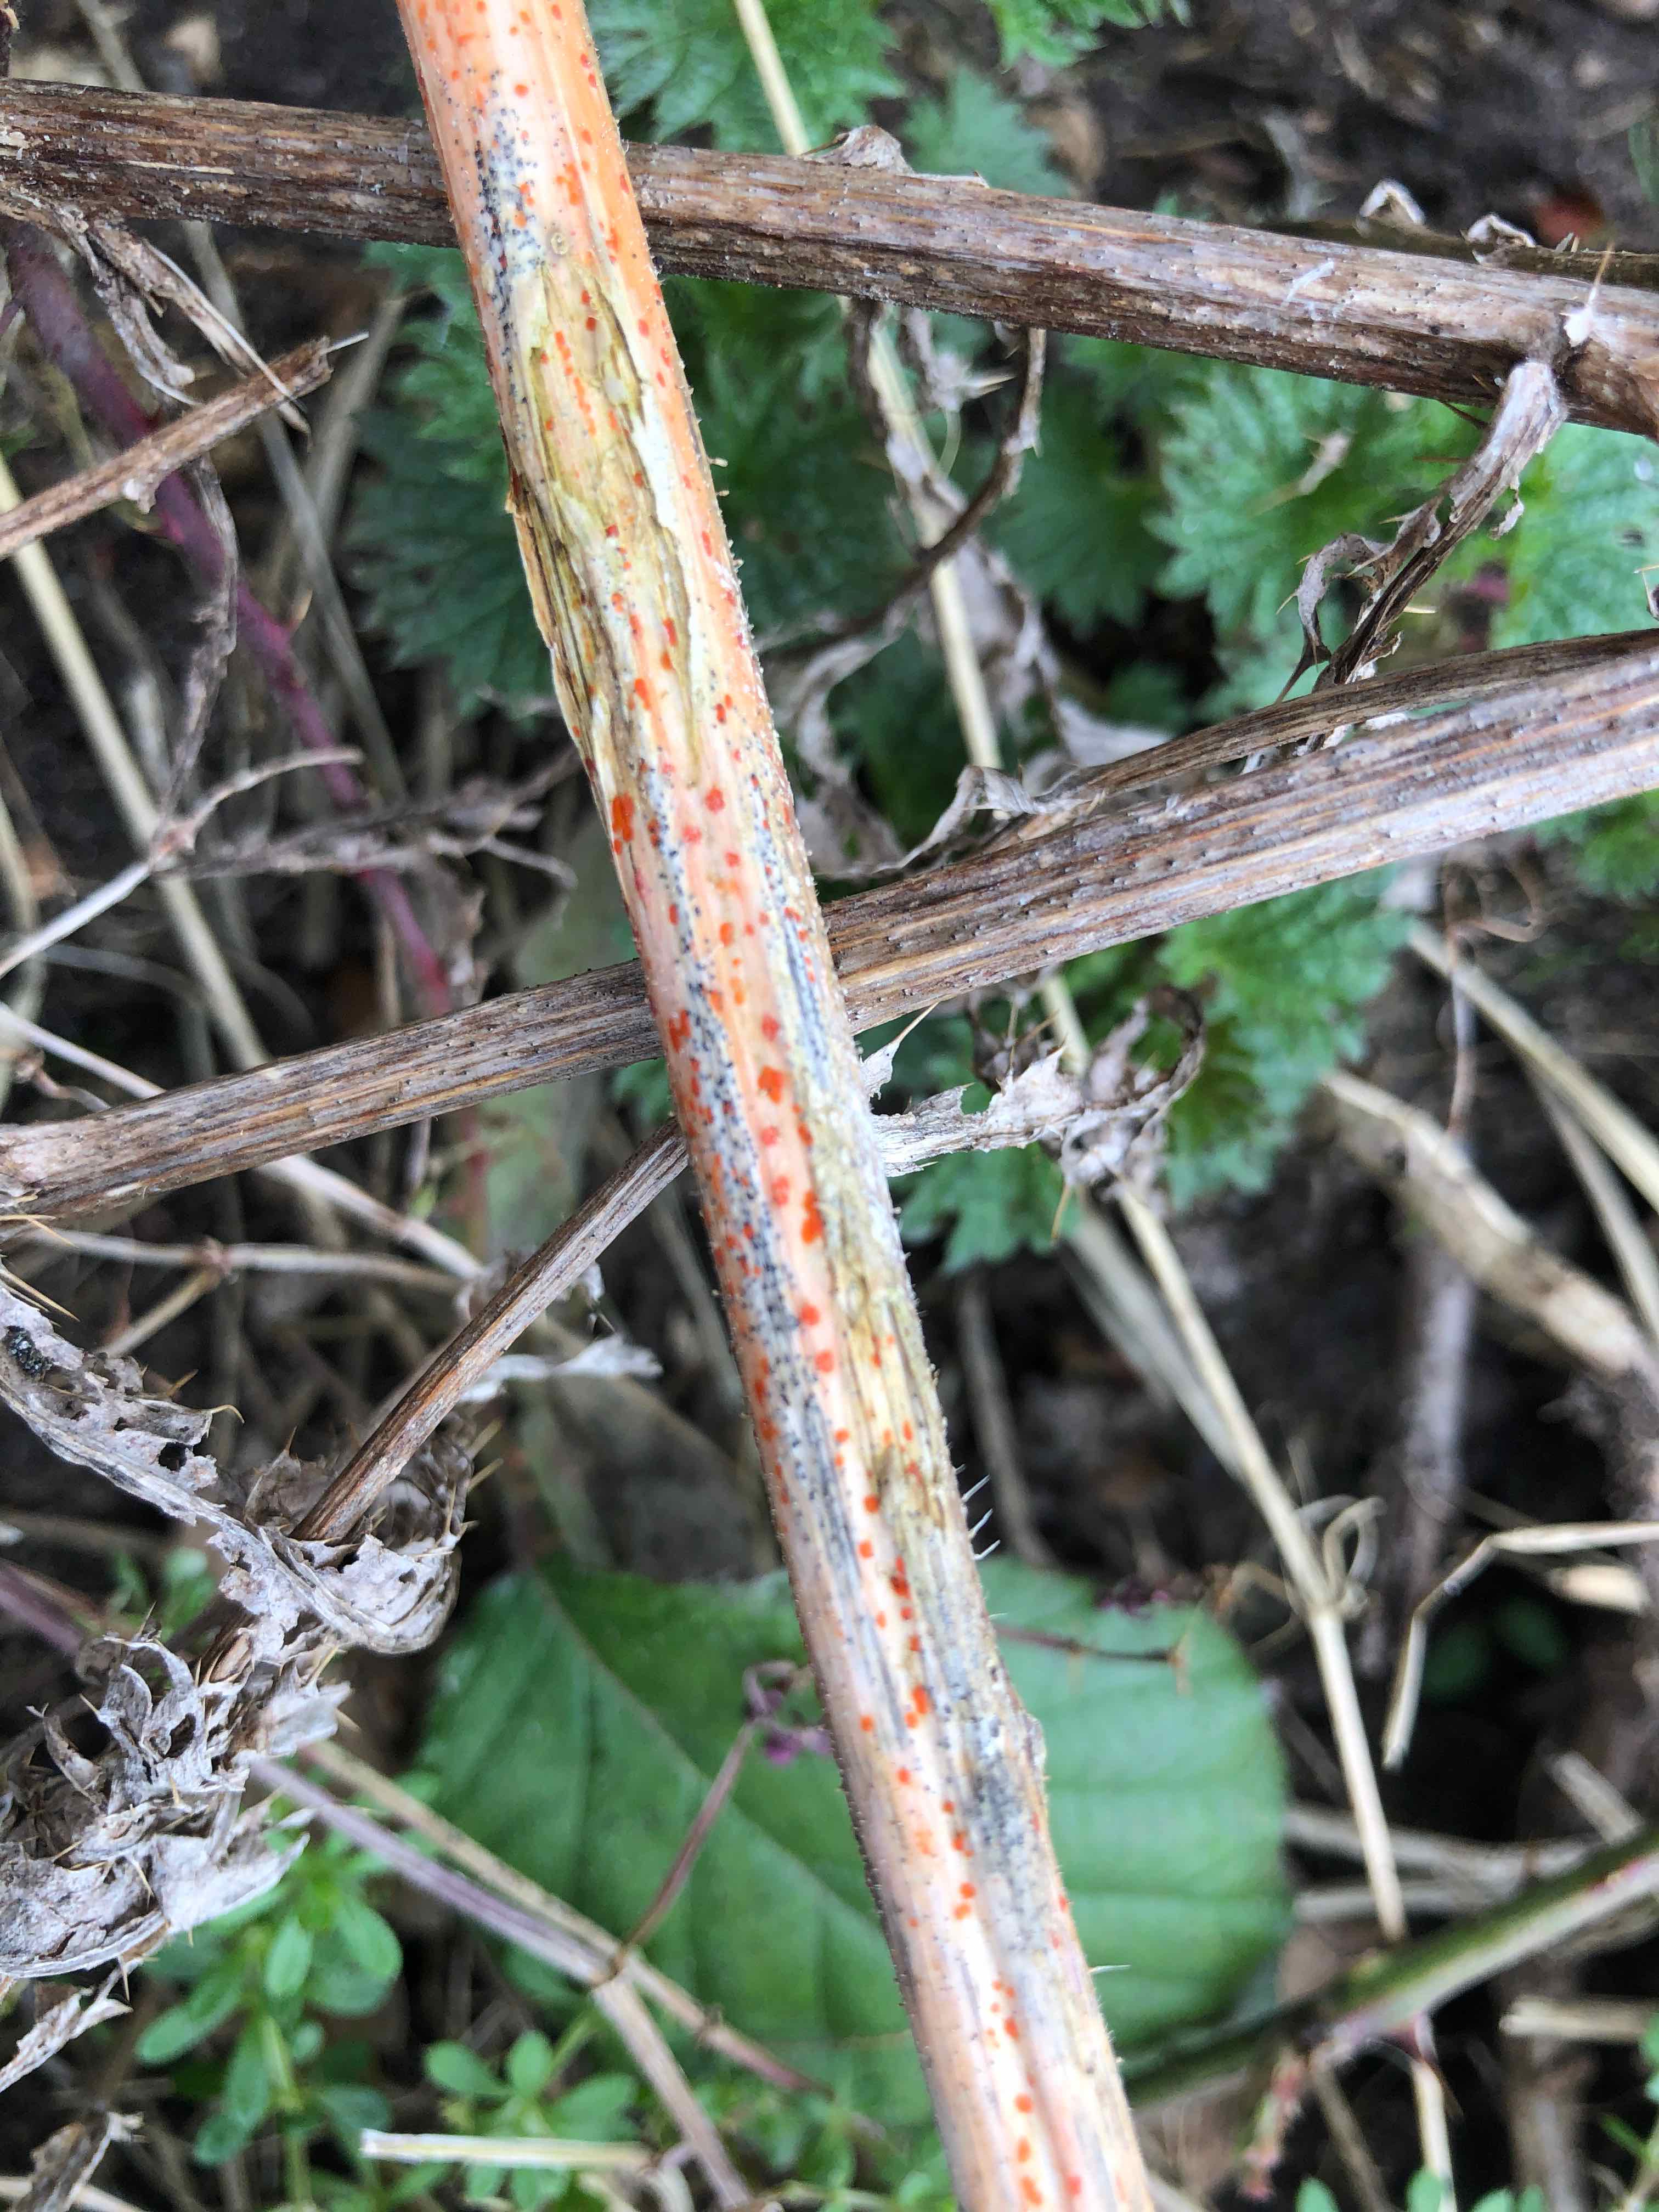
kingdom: Fungi
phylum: Ascomycota
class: Leotiomycetes
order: Helotiales
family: Calloriaceae
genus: Calloria
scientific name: Calloria urticae
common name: nælde-orangeskive
